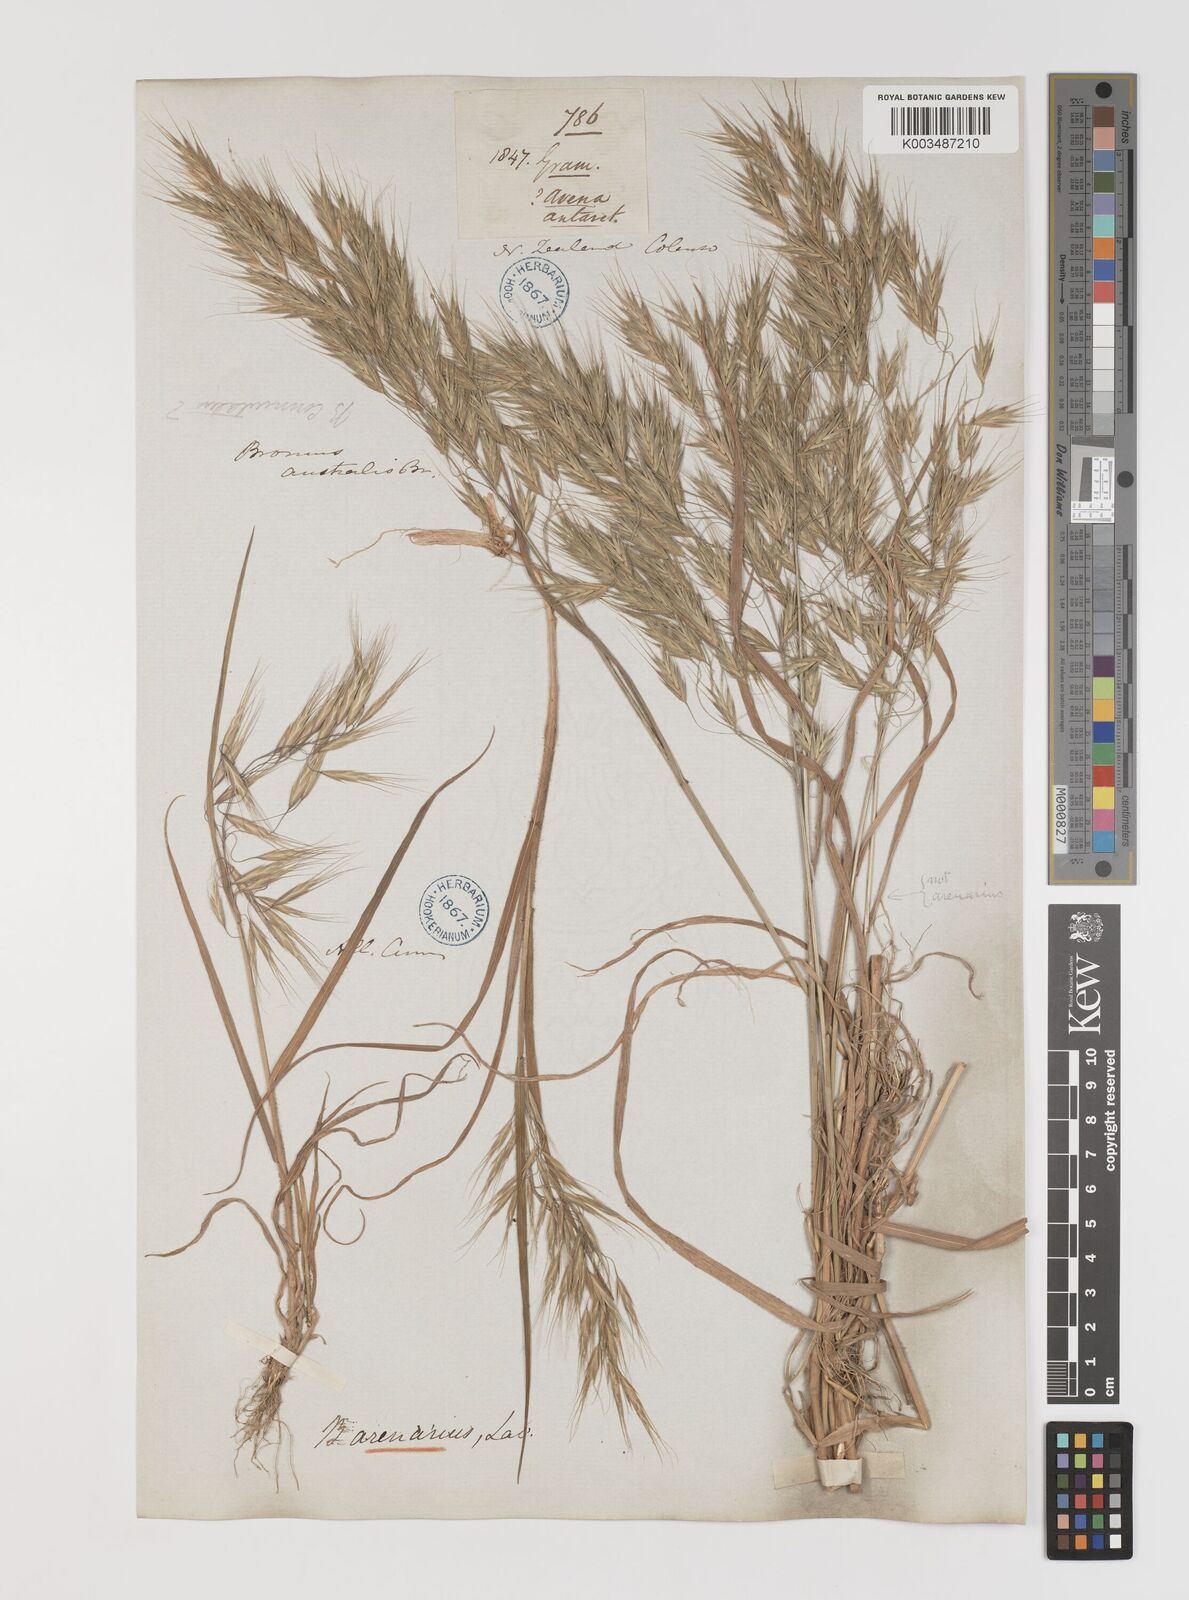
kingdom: Plantae
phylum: Tracheophyta
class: Liliopsida
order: Poales
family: Poaceae
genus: Bromus
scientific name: Bromus arenarius
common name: Australian brome
